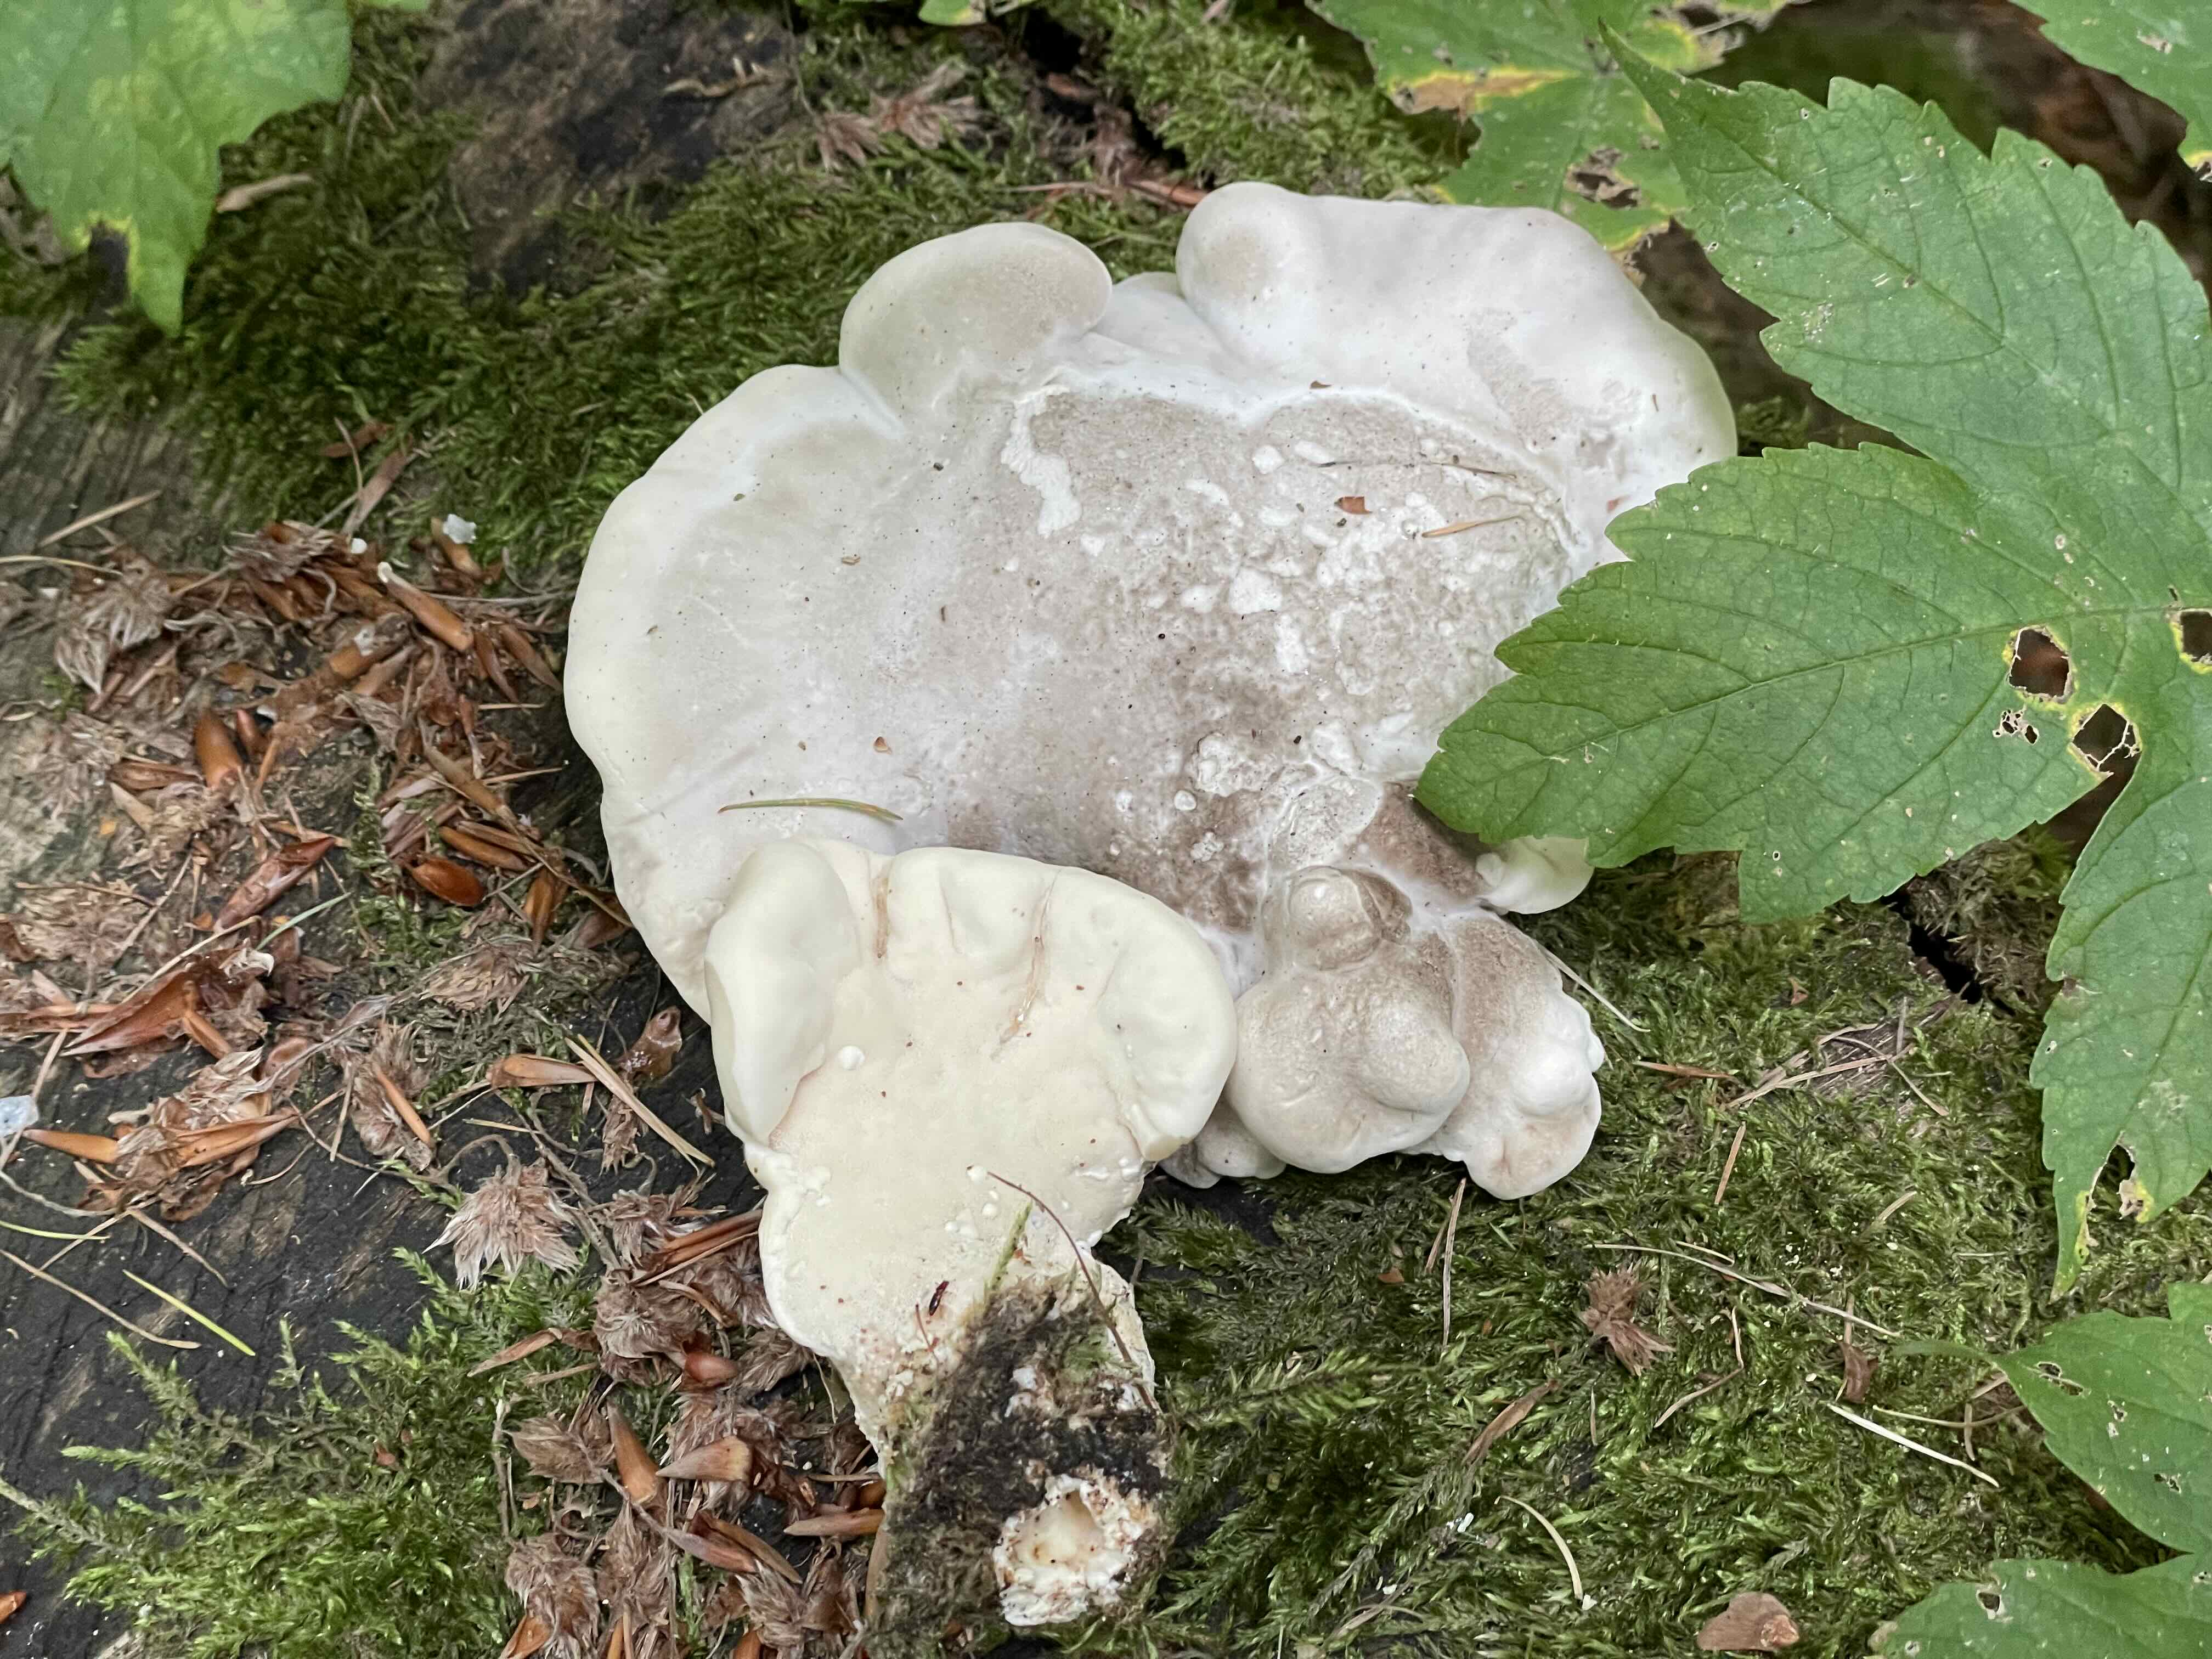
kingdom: Fungi
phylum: Basidiomycota
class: Agaricomycetes
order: Polyporales
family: Incrustoporiaceae
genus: Tyromyces
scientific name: Tyromyces lacteus
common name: mælkehvid kødporesvamp
